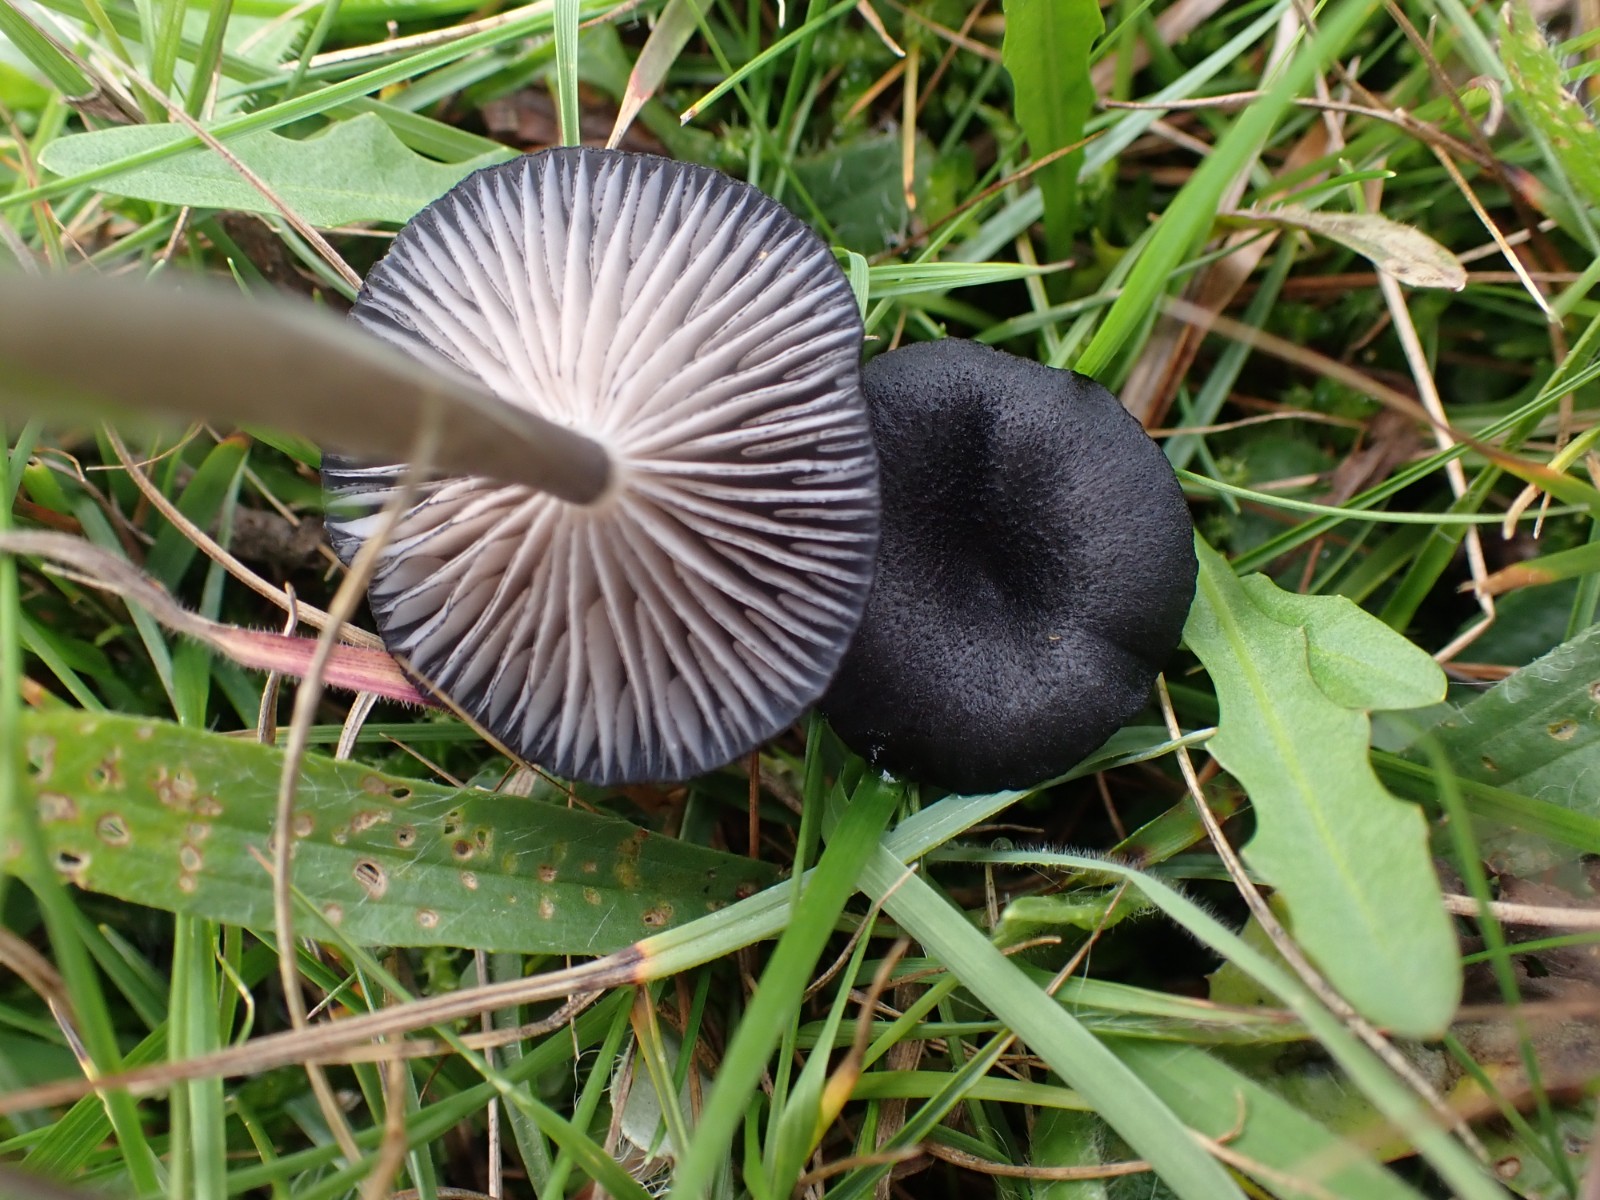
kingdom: Fungi
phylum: Basidiomycota
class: Agaricomycetes
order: Agaricales
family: Entolomataceae
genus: Entoloma
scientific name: Entoloma
